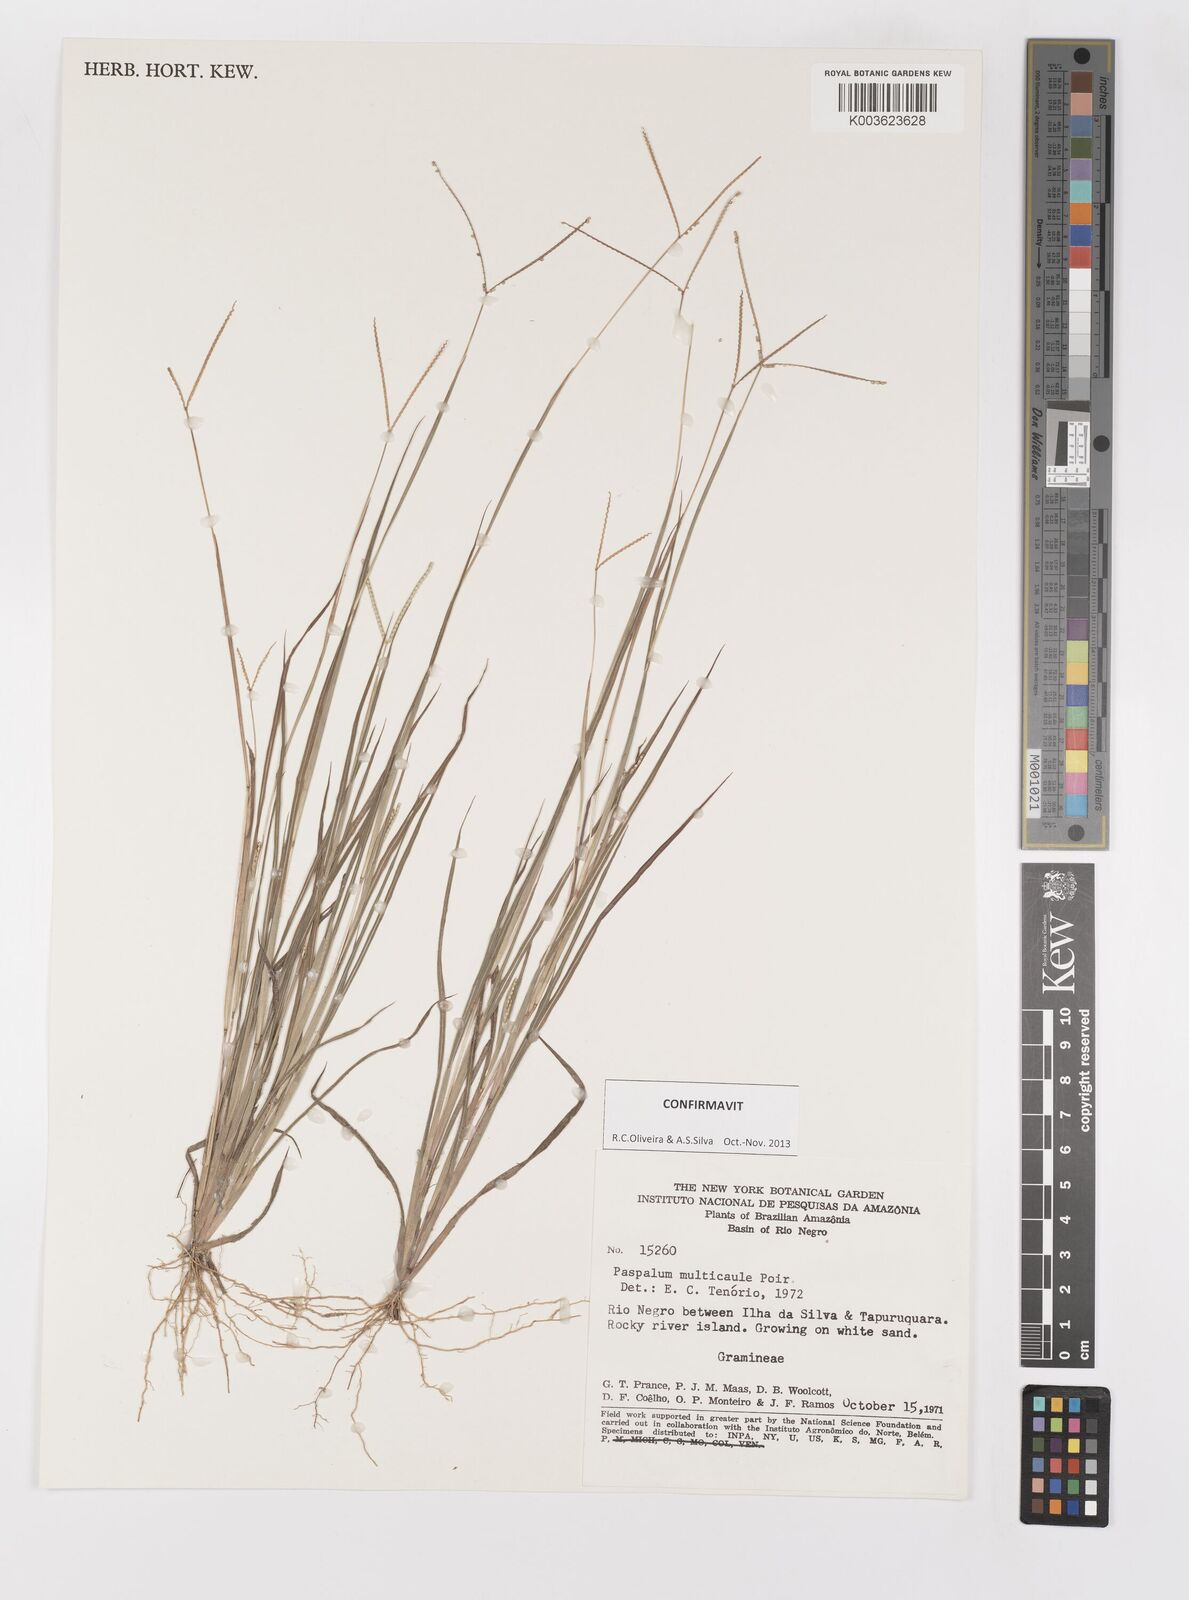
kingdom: Plantae
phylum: Tracheophyta
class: Liliopsida
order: Poales
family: Poaceae
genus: Paspalum
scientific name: Paspalum multicaule
